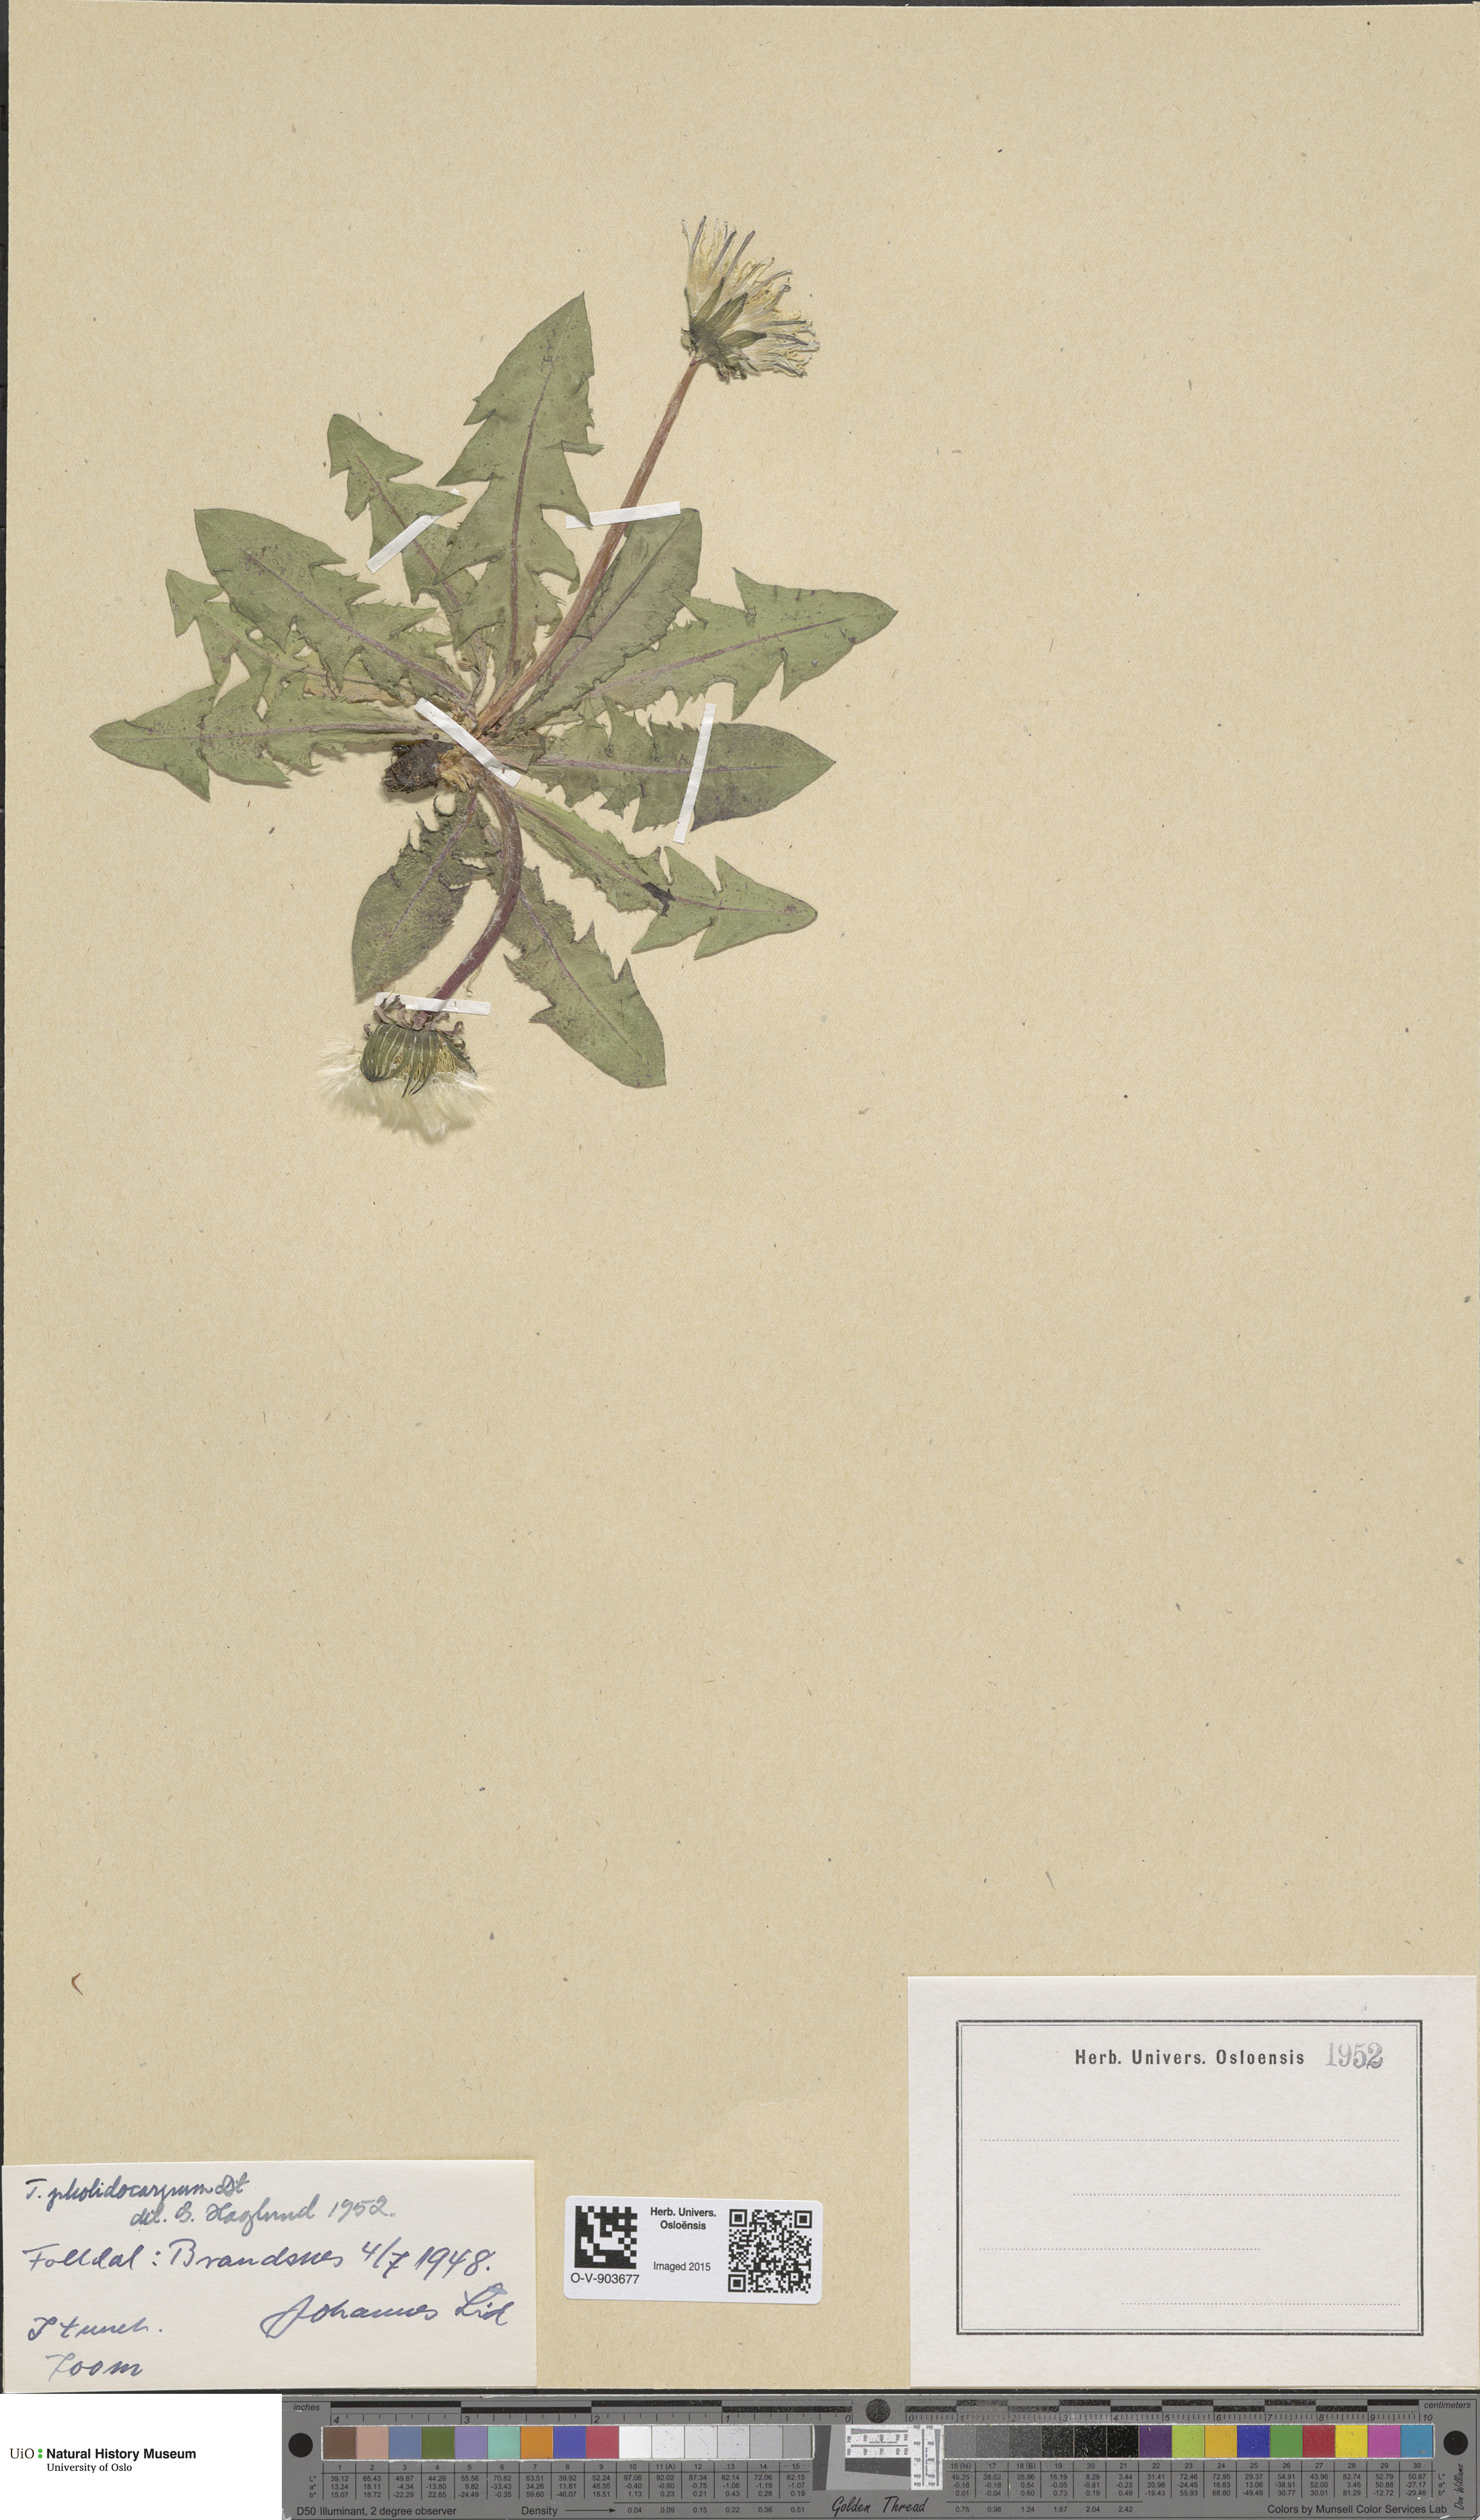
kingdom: Plantae
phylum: Tracheophyta
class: Magnoliopsida
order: Asterales
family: Asteraceae
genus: Taraxacum
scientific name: Taraxacum pholidocarpum
